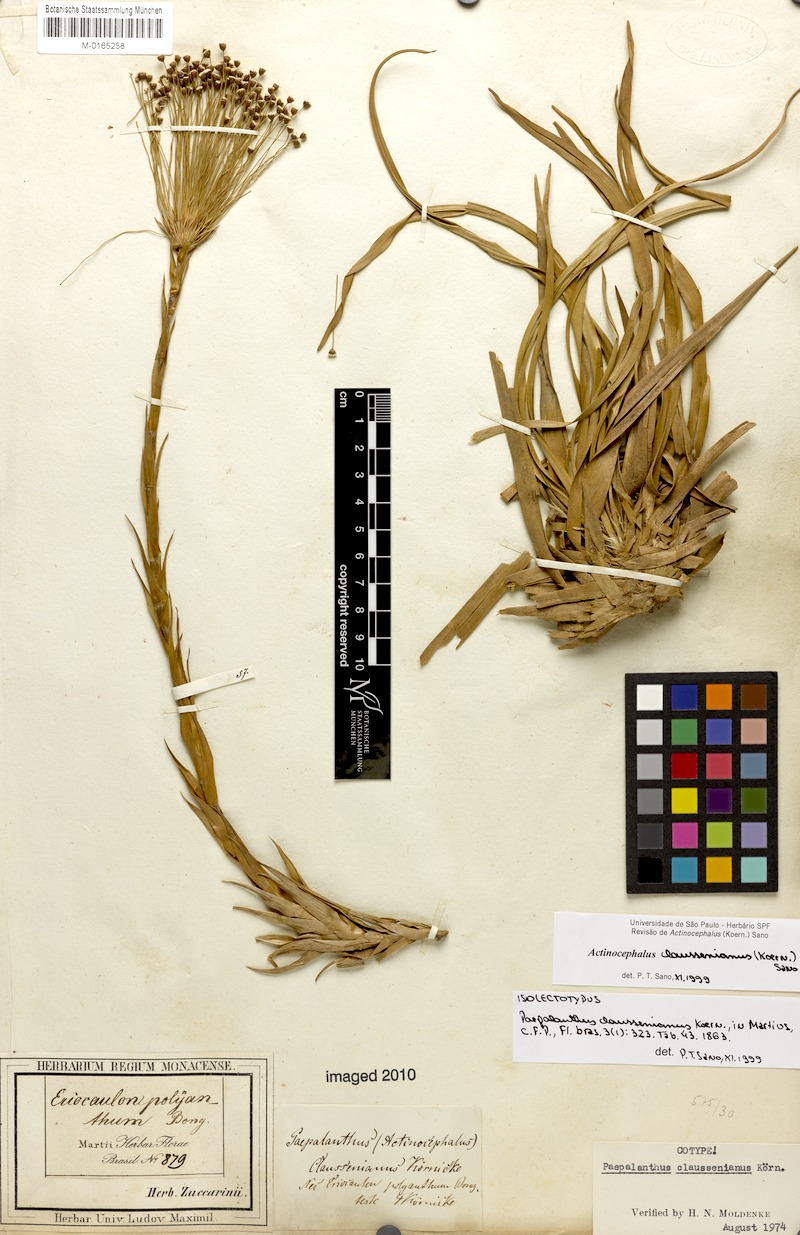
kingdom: Plantae
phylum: Tracheophyta
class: Liliopsida
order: Poales
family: Eriocaulaceae
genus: Paepalanthus
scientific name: Paepalanthus claussenianus
